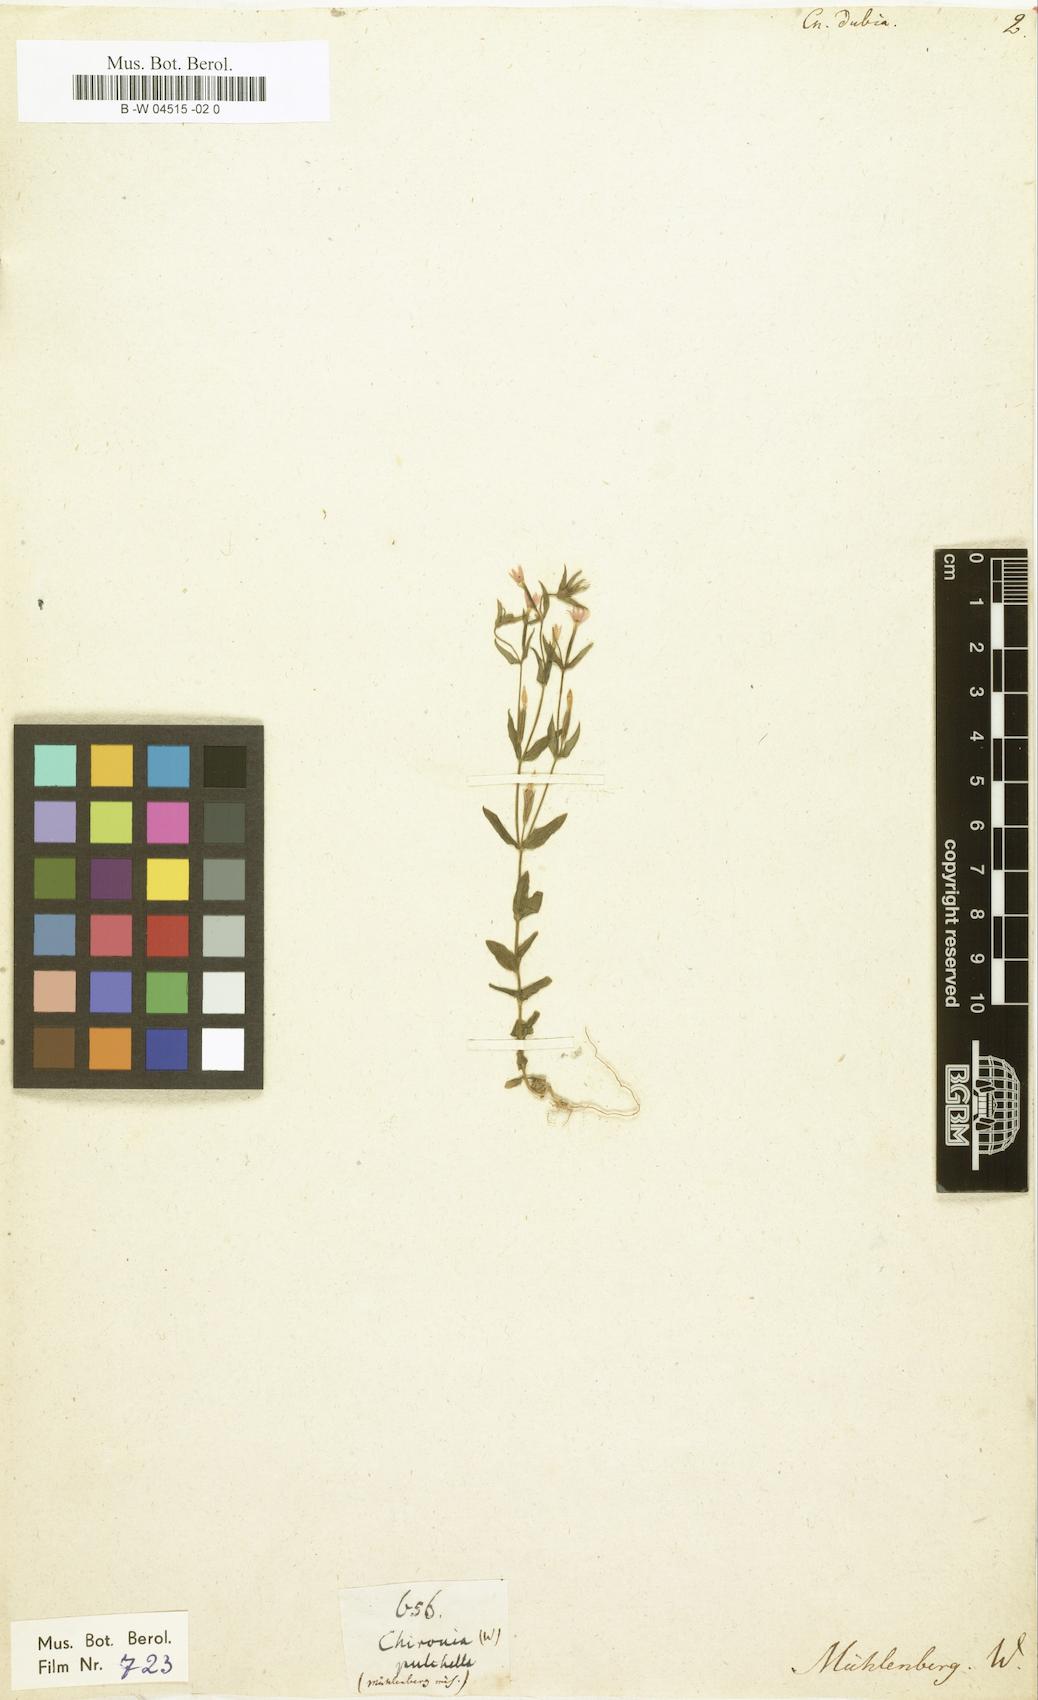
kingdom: Plantae
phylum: Tracheophyta
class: Magnoliopsida
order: Gentianales
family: Gentianaceae
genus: Zeltnera
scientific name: Zeltnera muhlenbergii
